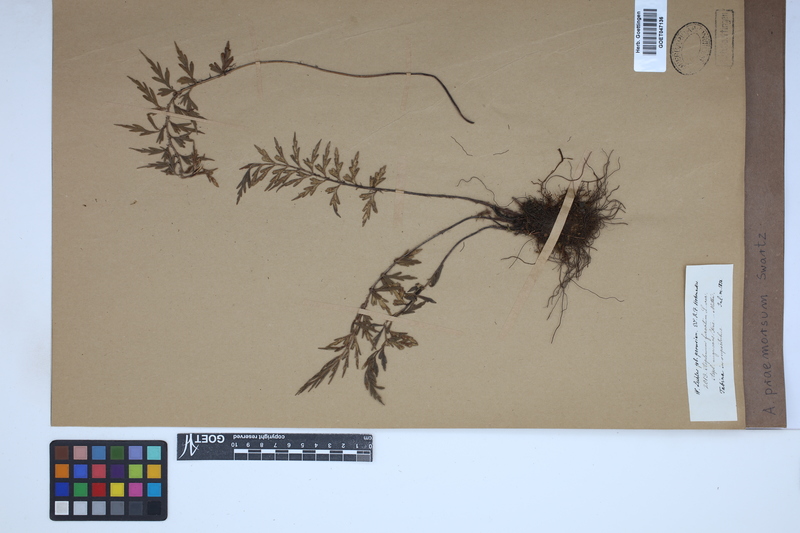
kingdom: Plantae
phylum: Tracheophyta
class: Polypodiopsida
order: Polypodiales
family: Aspleniaceae
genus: Asplenium
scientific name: Asplenium praemorsum
